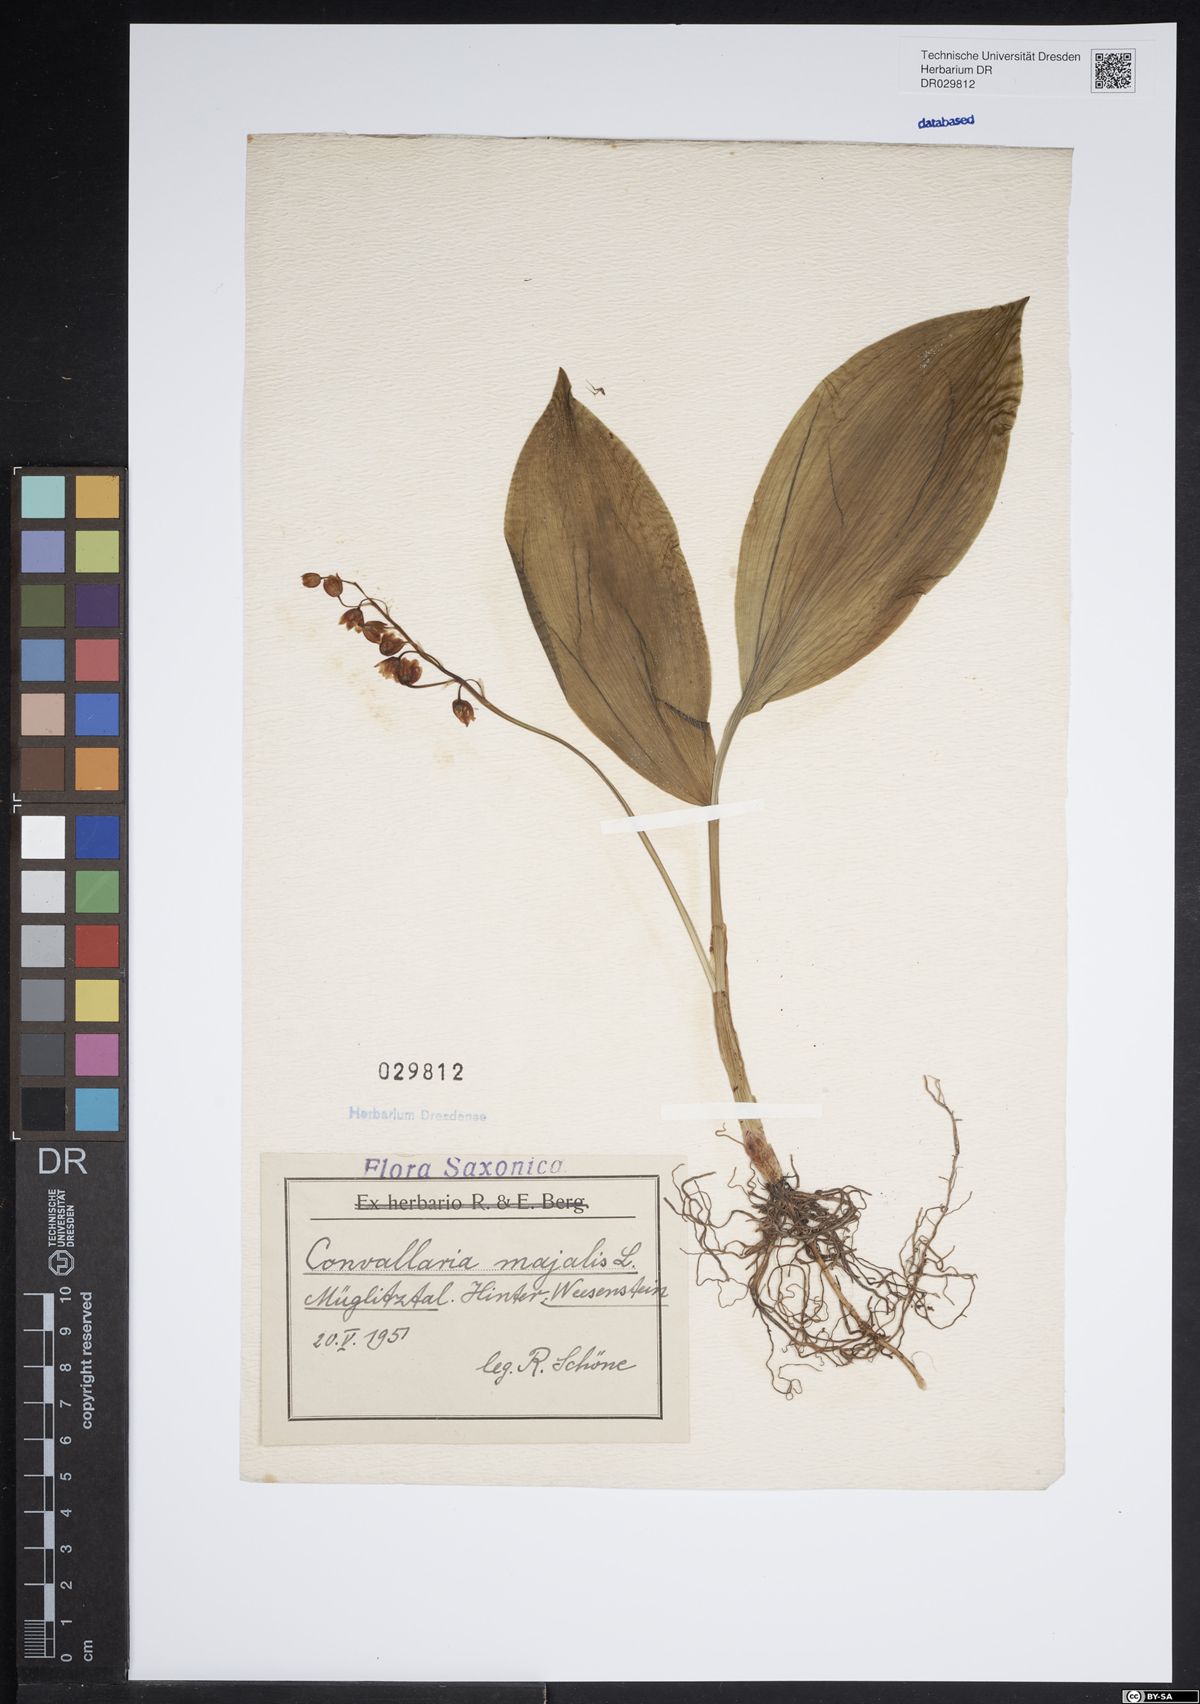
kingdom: Plantae
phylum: Tracheophyta
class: Liliopsida
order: Asparagales
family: Asparagaceae
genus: Convallaria
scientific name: Convallaria majalis
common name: Lily-of-the-valley
